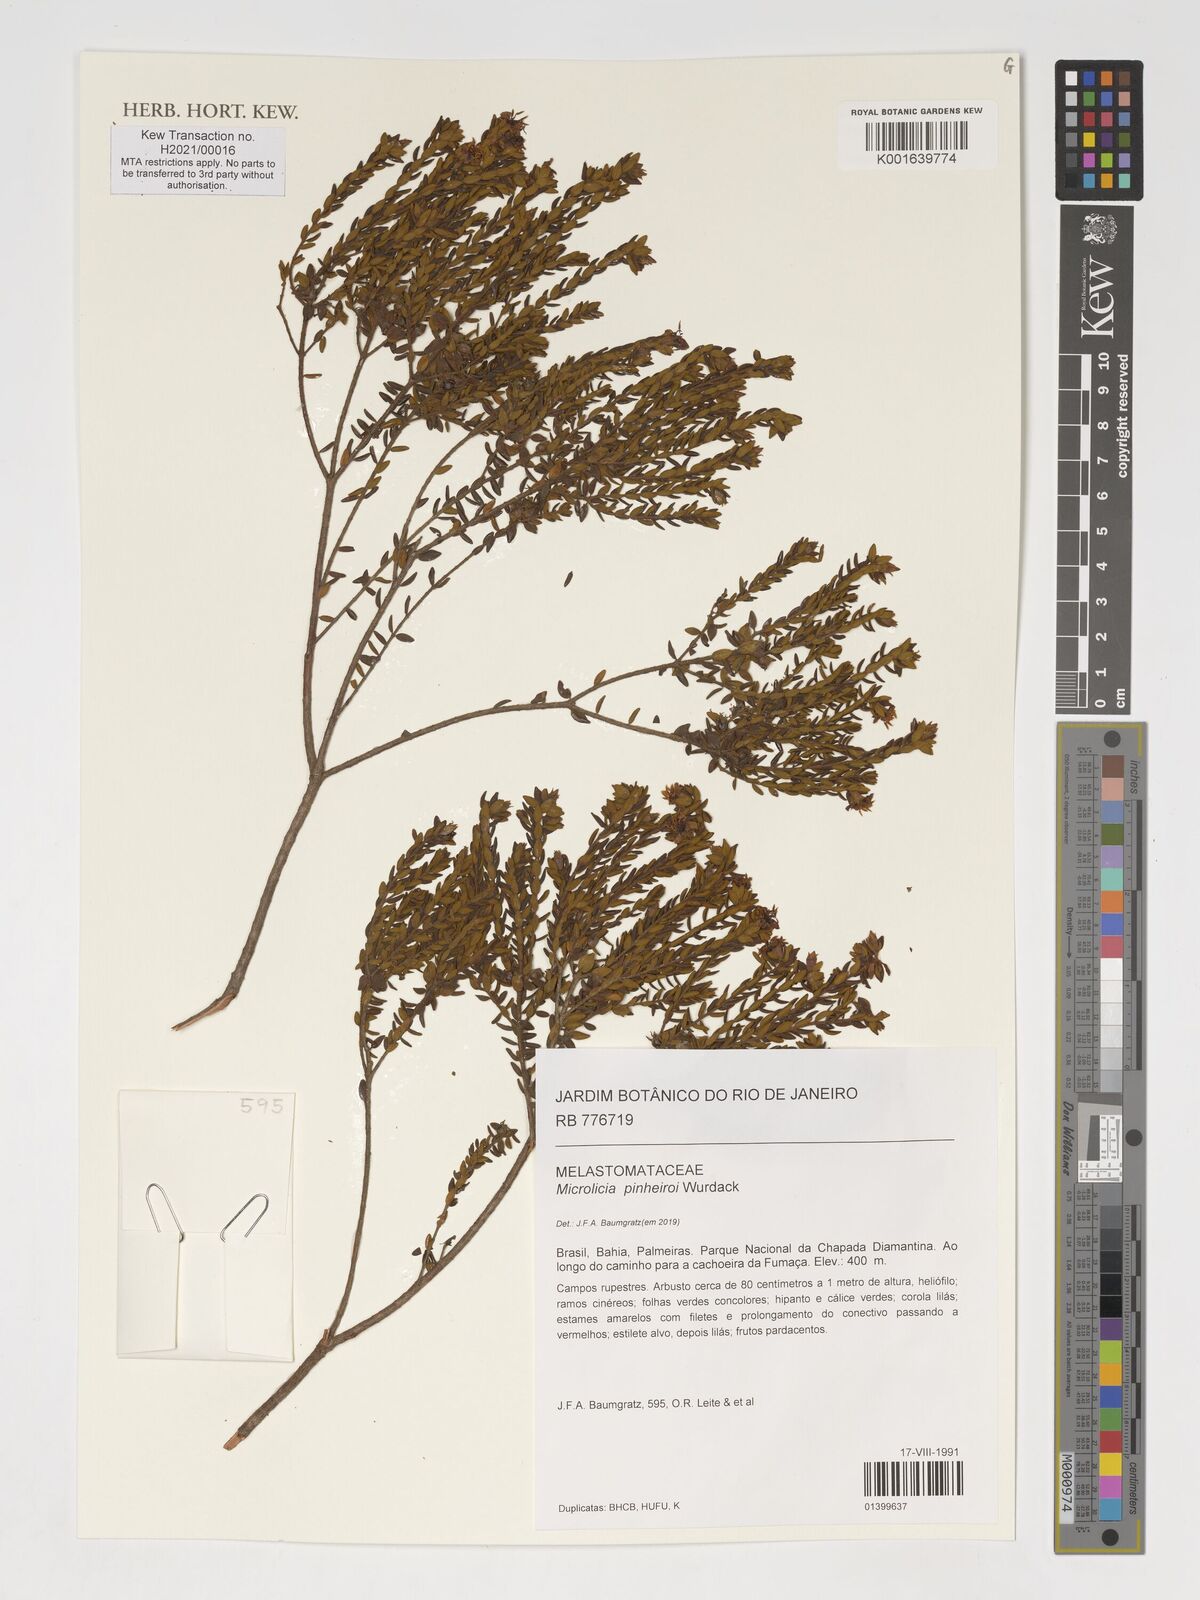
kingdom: Plantae
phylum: Tracheophyta
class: Magnoliopsida
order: Myrtales
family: Melastomataceae
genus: Microlicia
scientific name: Microlicia pinheiroi
